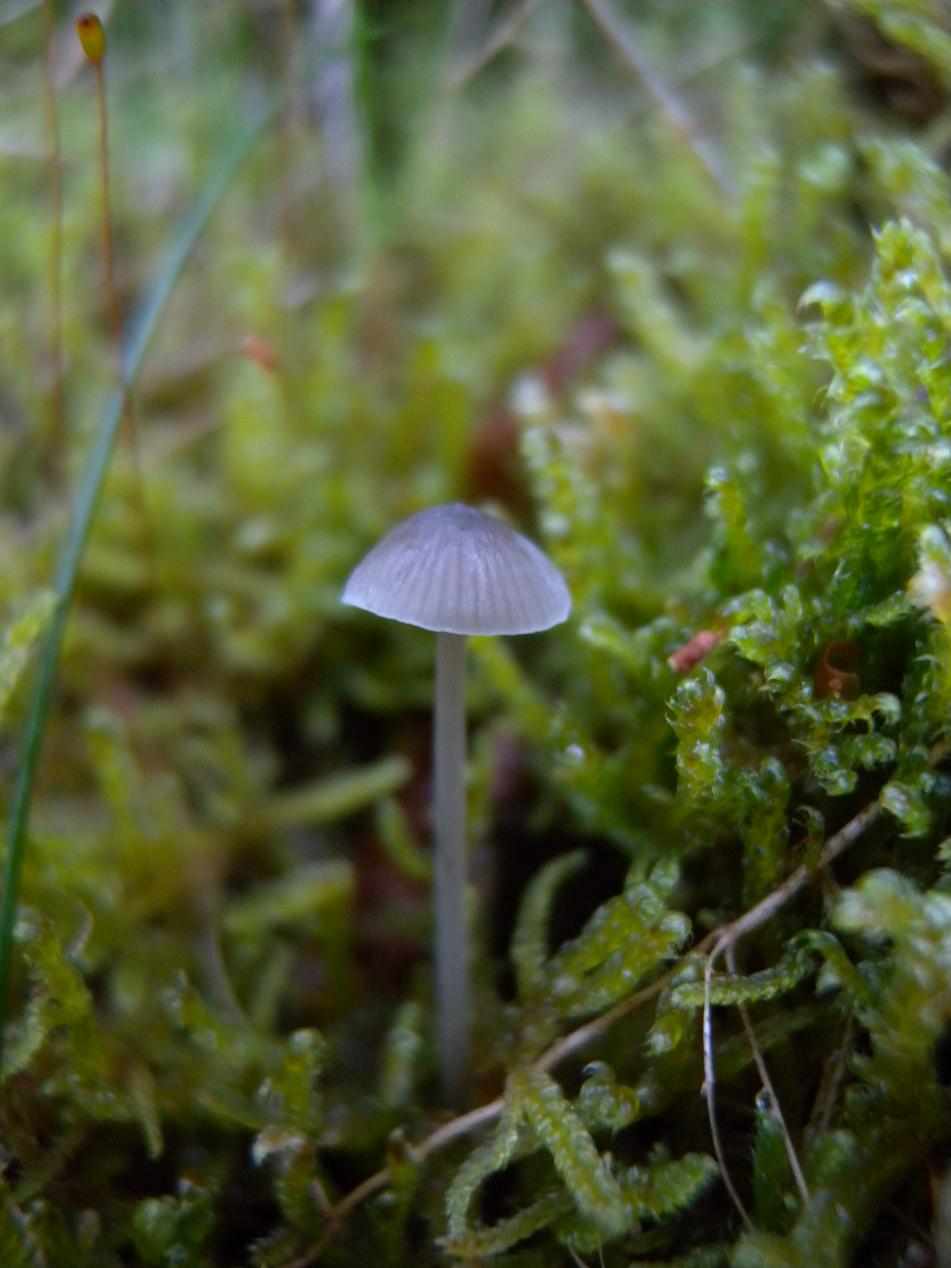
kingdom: Fungi
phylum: Basidiomycota
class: Agaricomycetes
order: Agaricales
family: Mycenaceae
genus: Mycena
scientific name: Mycena cinerella
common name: mel-huesvamp
